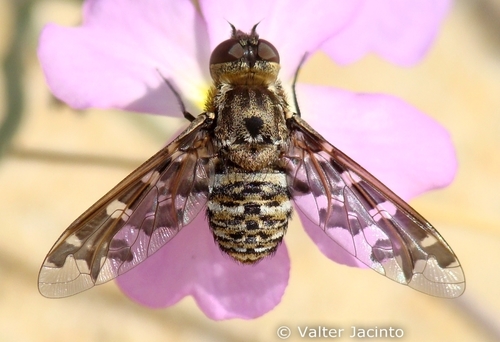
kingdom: Animalia
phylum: Arthropoda
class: Insecta
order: Diptera
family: Bombyliidae
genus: Exoprosopa
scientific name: Exoprosopa italica
